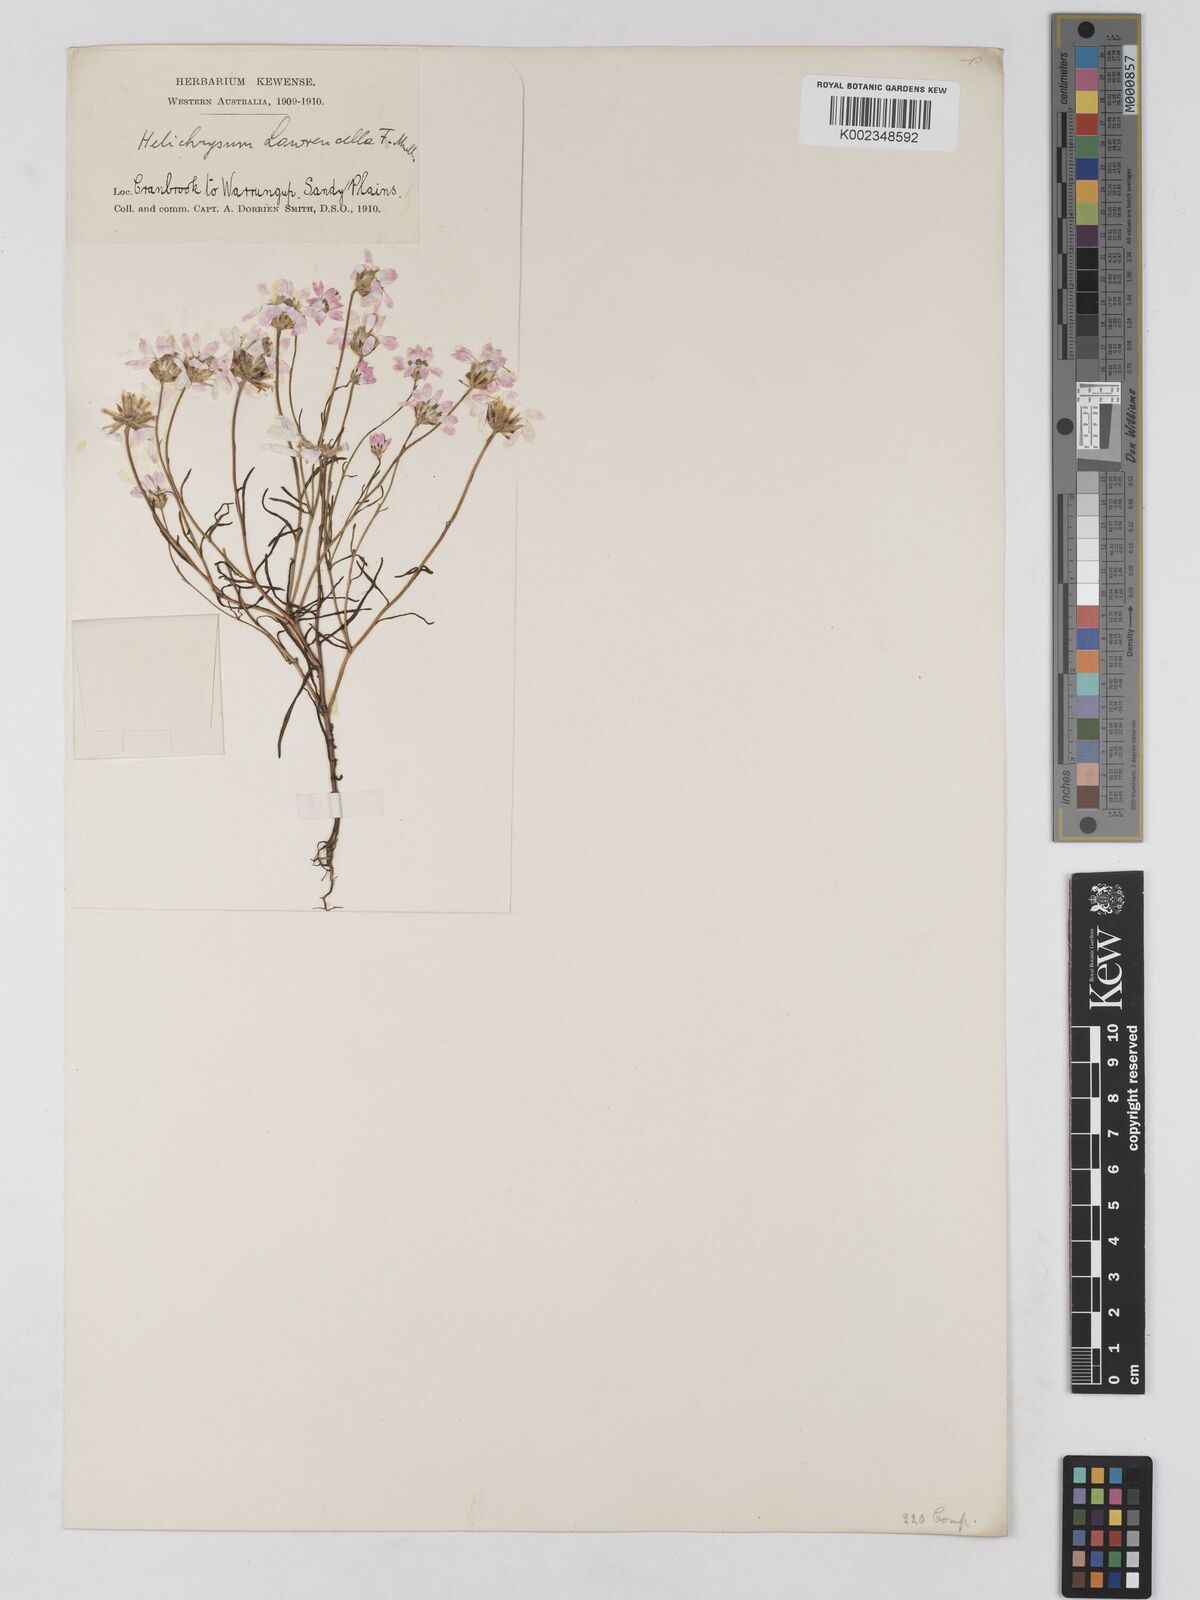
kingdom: Plantae
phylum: Tracheophyta
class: Magnoliopsida
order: Asterales
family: Asteraceae
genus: Lawrencella
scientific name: Lawrencella rosea
